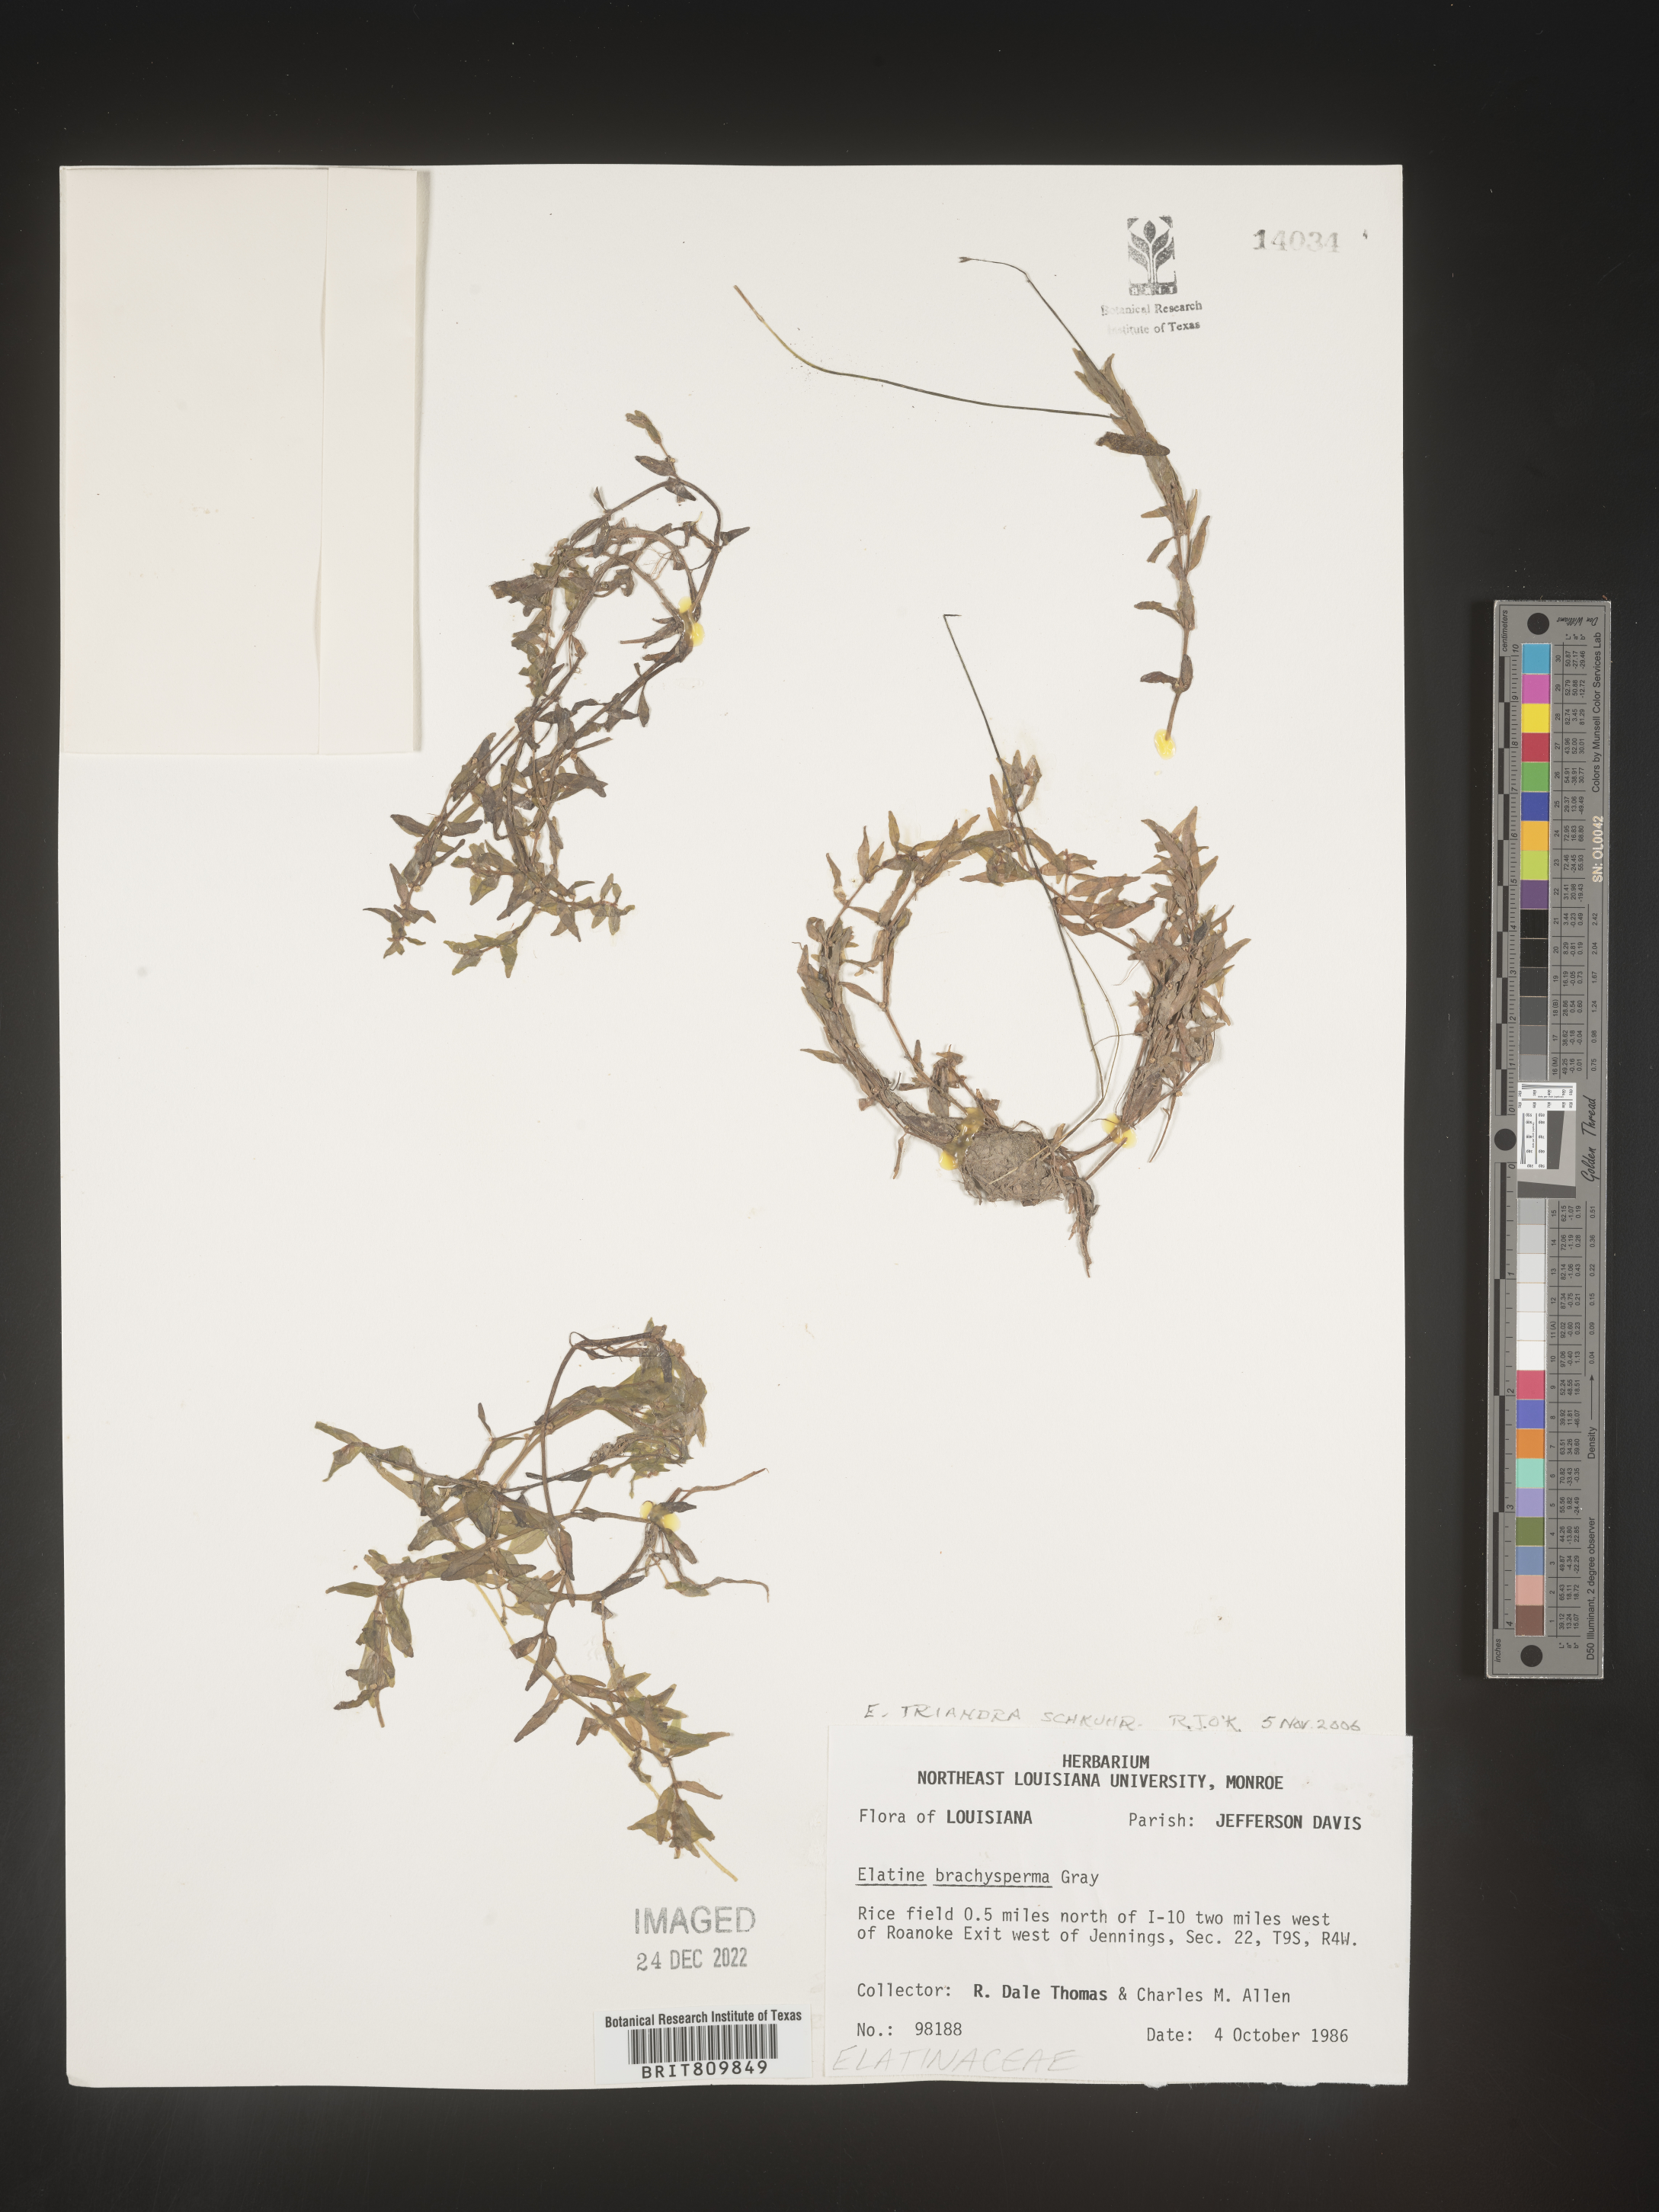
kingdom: Plantae
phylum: Tracheophyta
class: Magnoliopsida
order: Malpighiales
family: Elatinaceae
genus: Elatine
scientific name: Elatine
